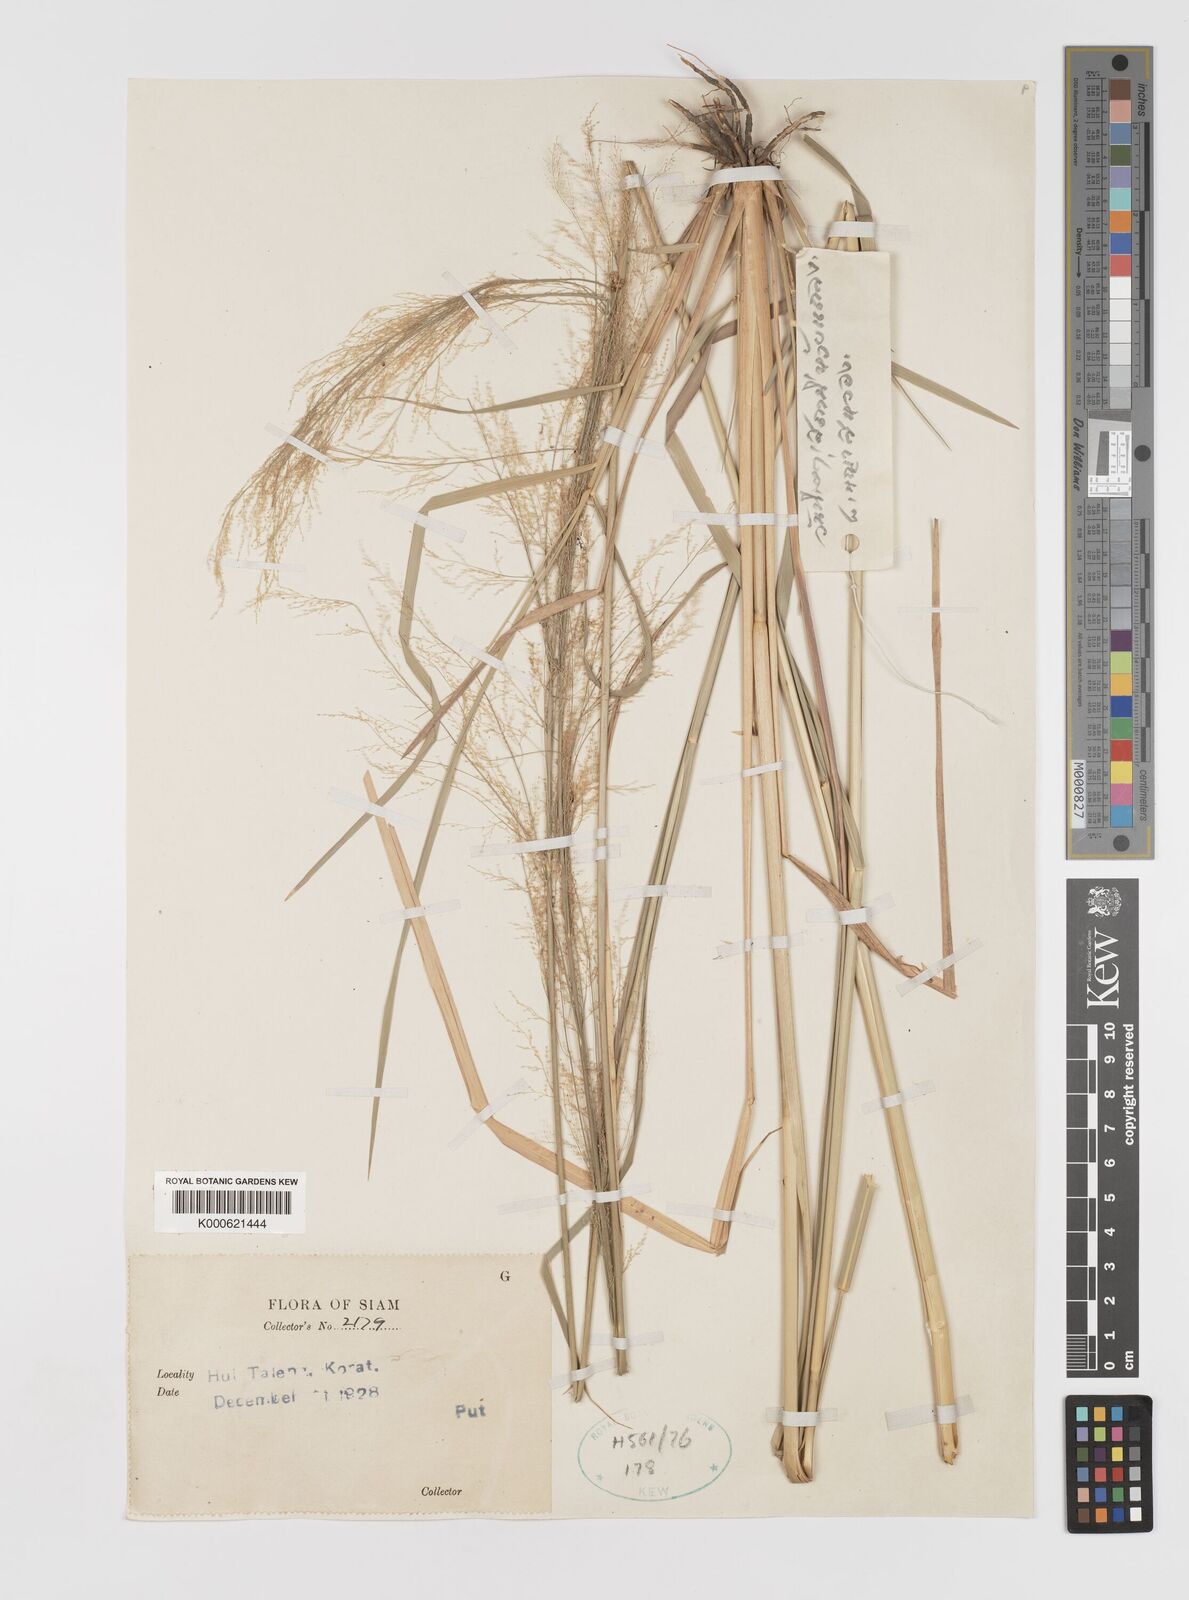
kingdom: Plantae
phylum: Tracheophyta
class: Liliopsida
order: Poales
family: Poaceae
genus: Eragrostis
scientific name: Eragrostis japonica
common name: Pond lovegrass
